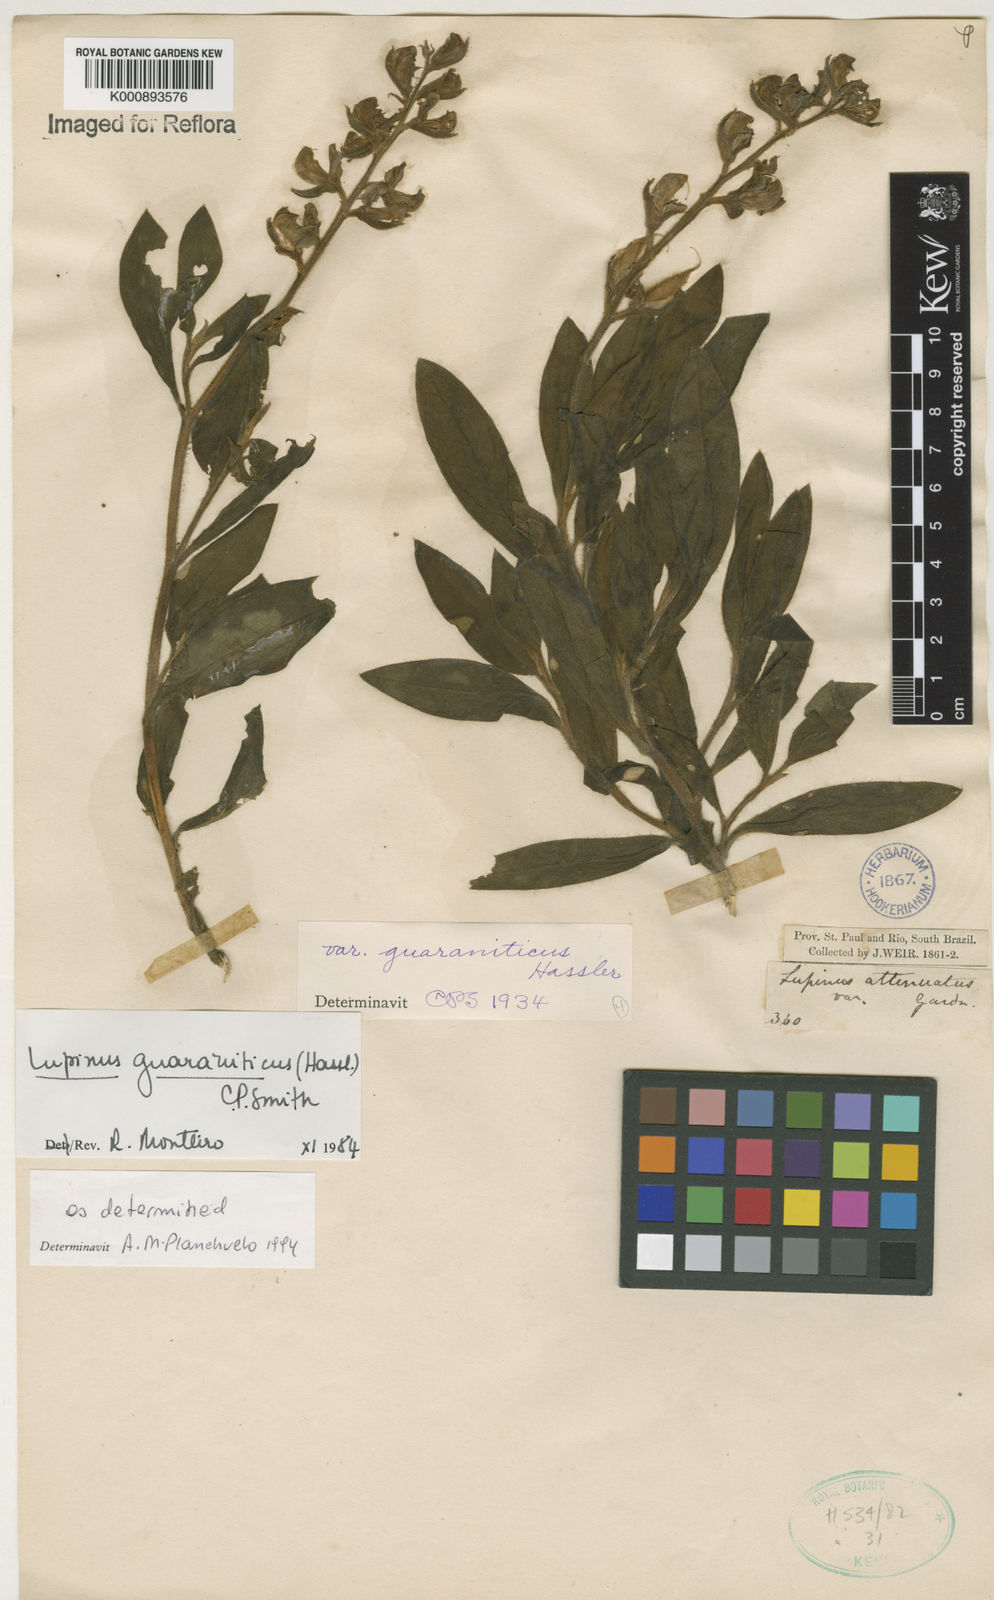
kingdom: Plantae
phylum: Tracheophyta
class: Magnoliopsida
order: Fabales
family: Fabaceae
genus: Lupinus
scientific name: Lupinus guaraniticus
